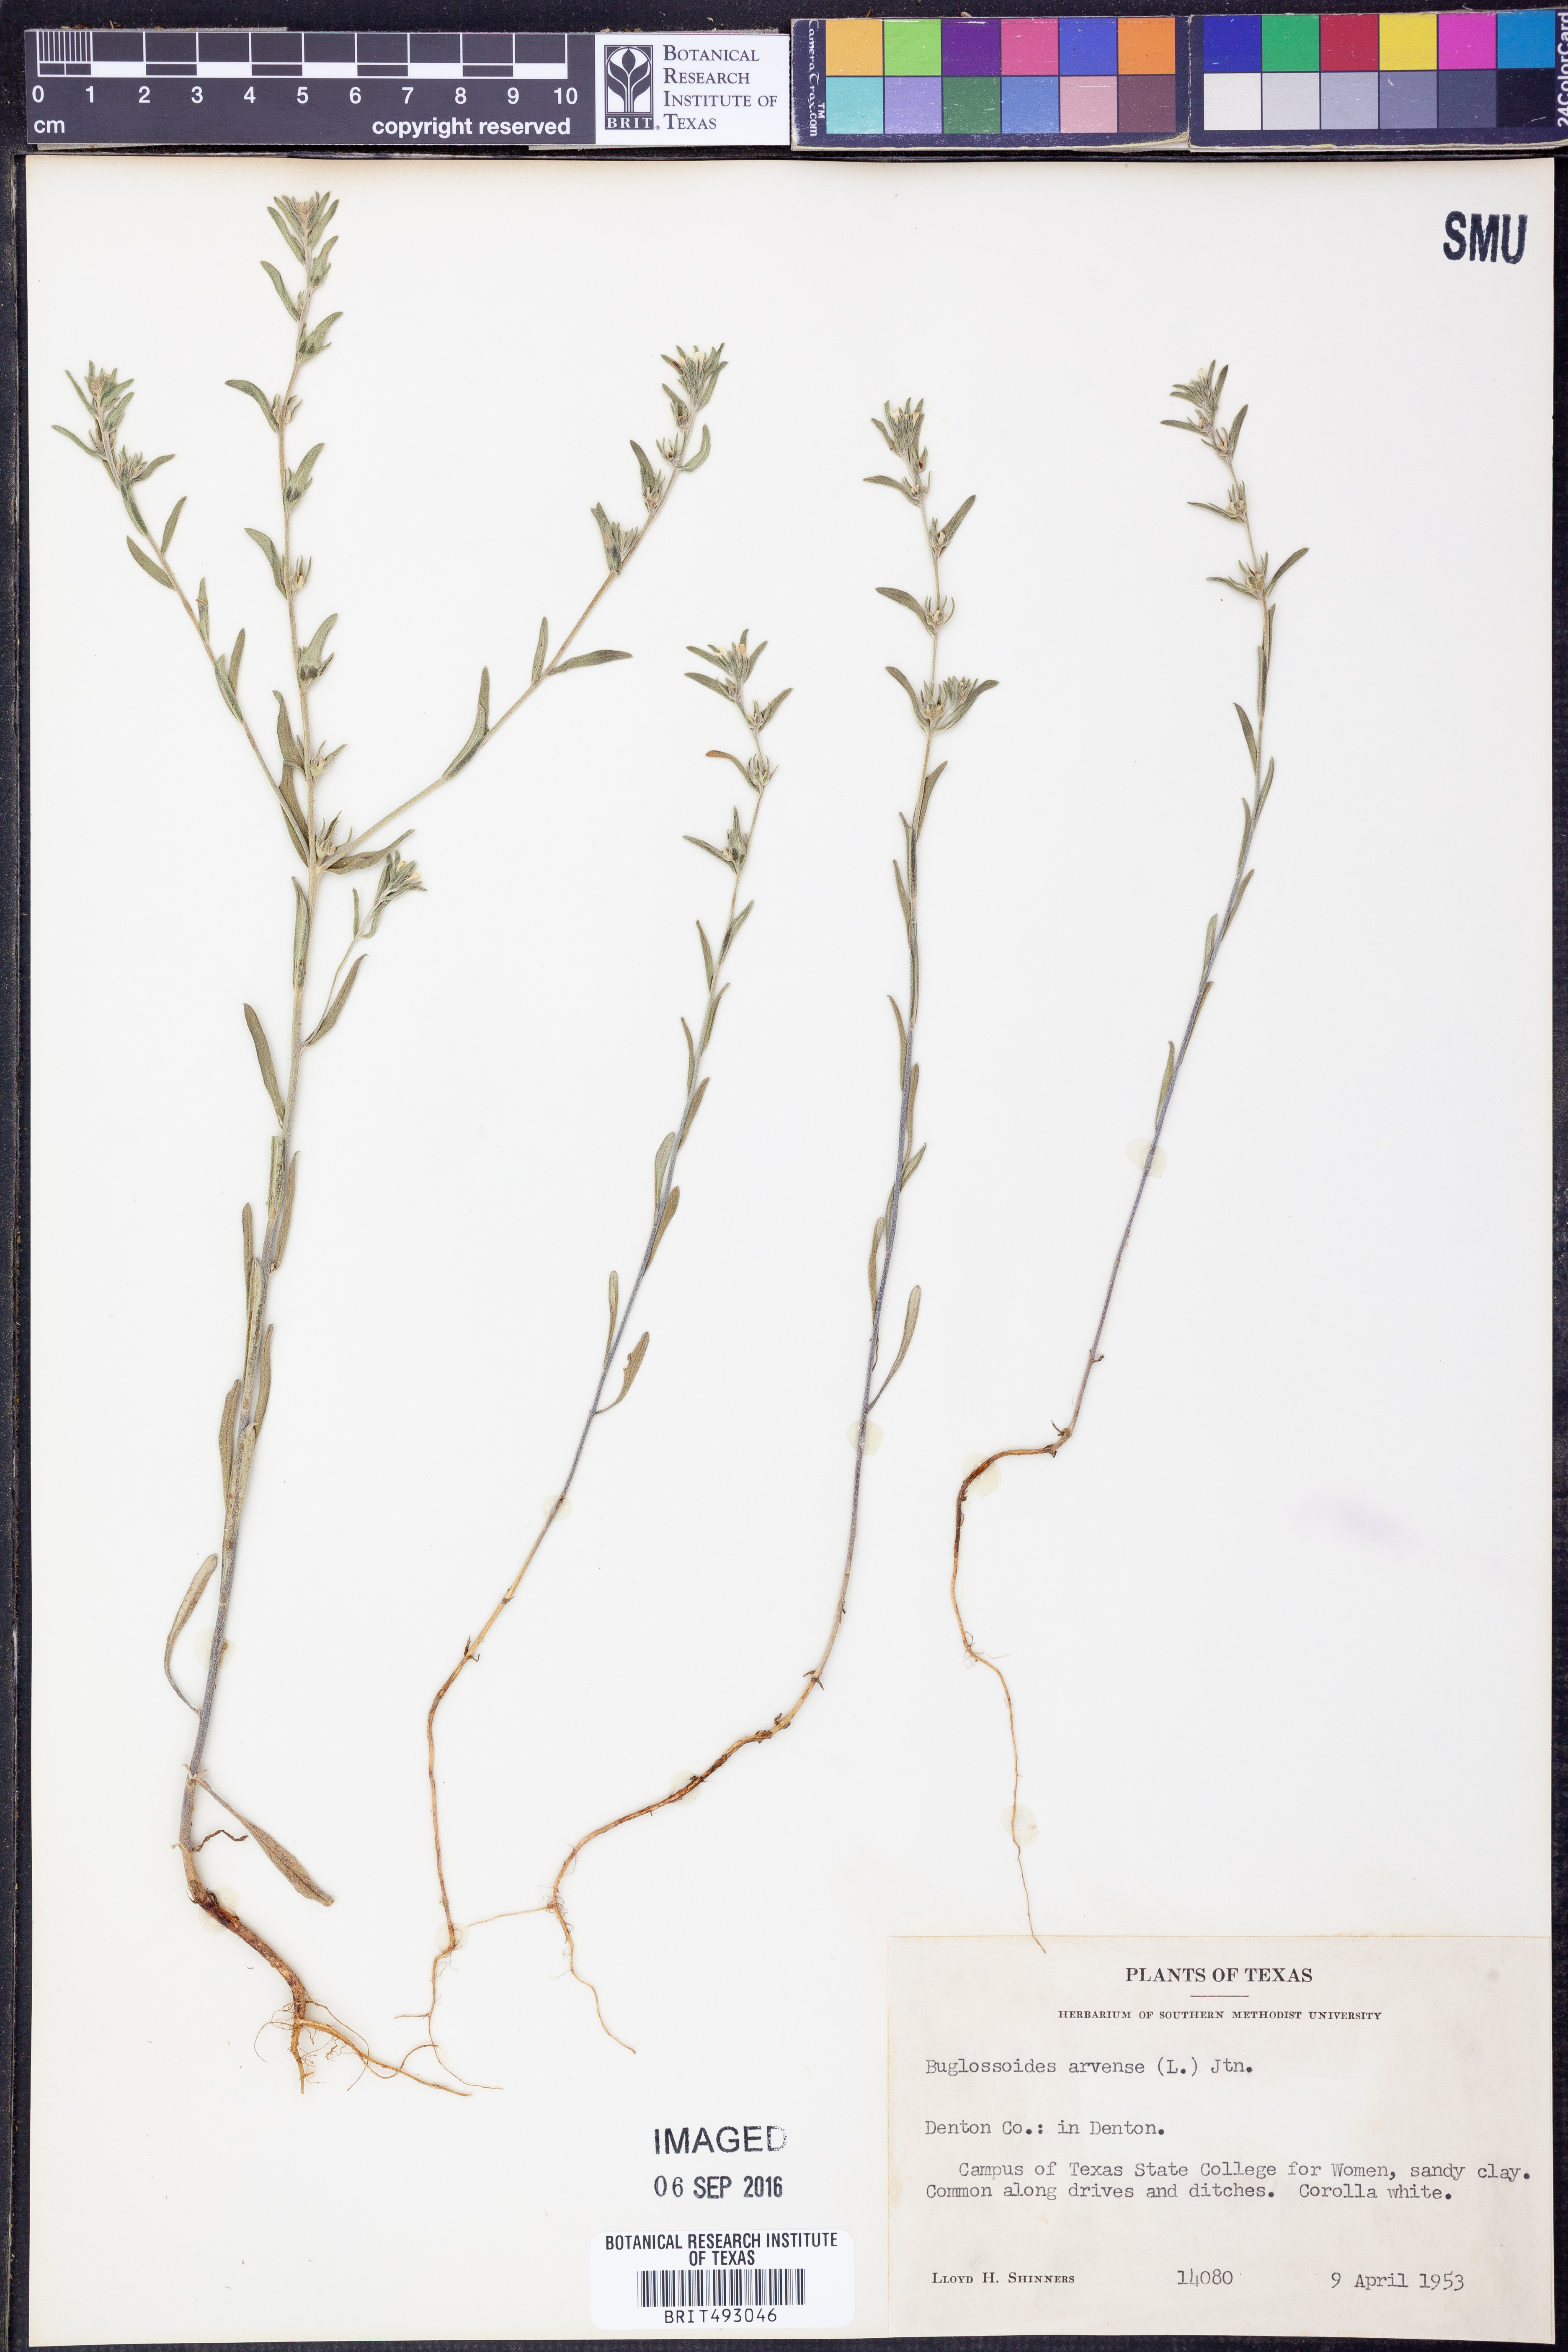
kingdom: Plantae
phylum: Tracheophyta
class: Magnoliopsida
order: Boraginales
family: Boraginaceae
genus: Buglossoides
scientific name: Buglossoides arvensis
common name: Corn gromwell
